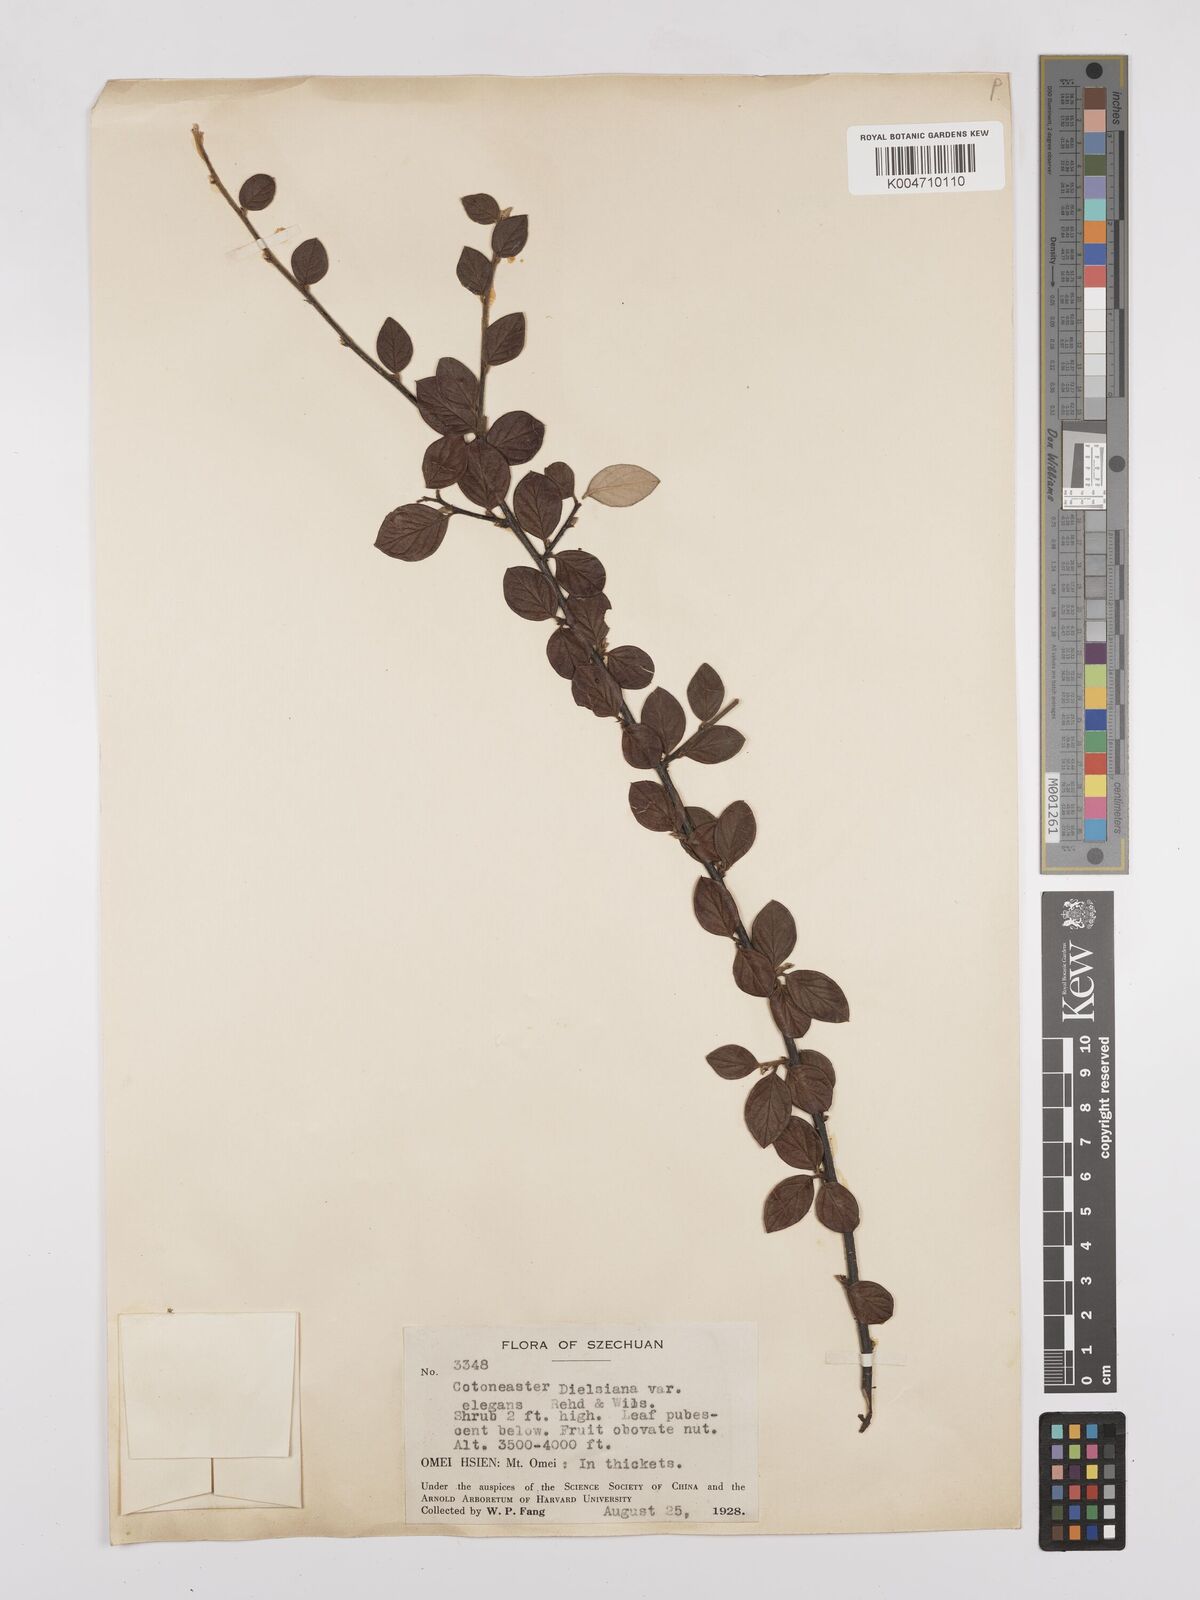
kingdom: Plantae
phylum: Tracheophyta
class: Magnoliopsida
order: Rosales
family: Rosaceae
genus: Cotoneaster
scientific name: Cotoneaster dielsianus
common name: Diels's cotoneaster
